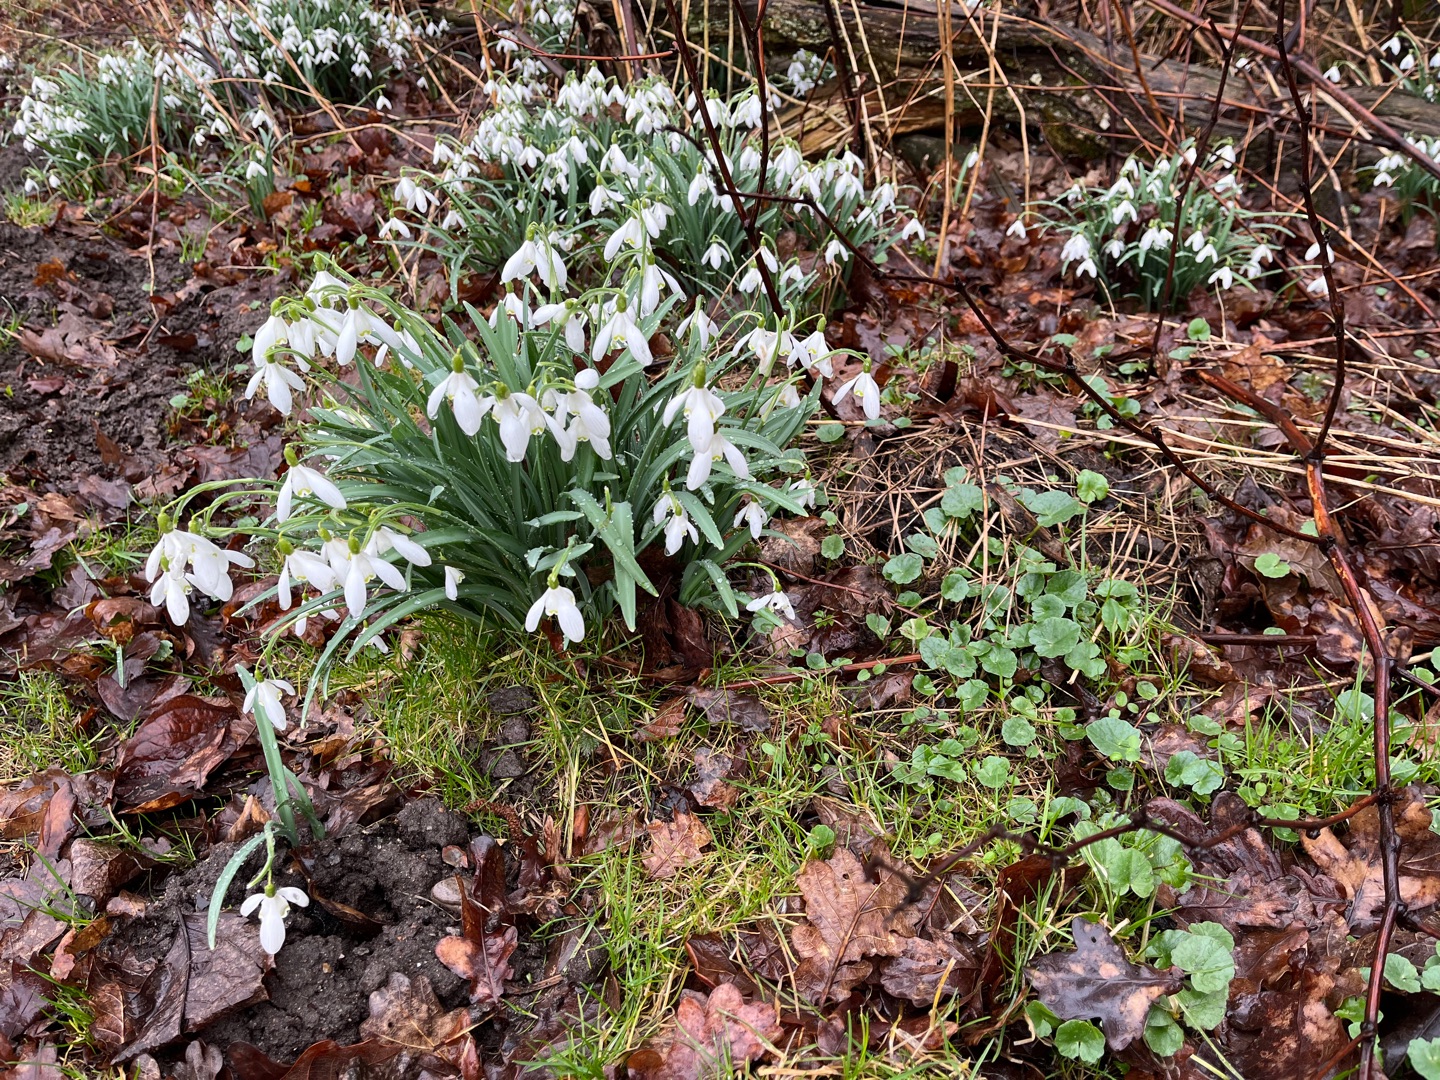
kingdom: Plantae
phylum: Tracheophyta
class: Liliopsida
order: Asparagales
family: Amaryllidaceae
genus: Galanthus
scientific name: Galanthus nivalis
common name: Vintergæk
